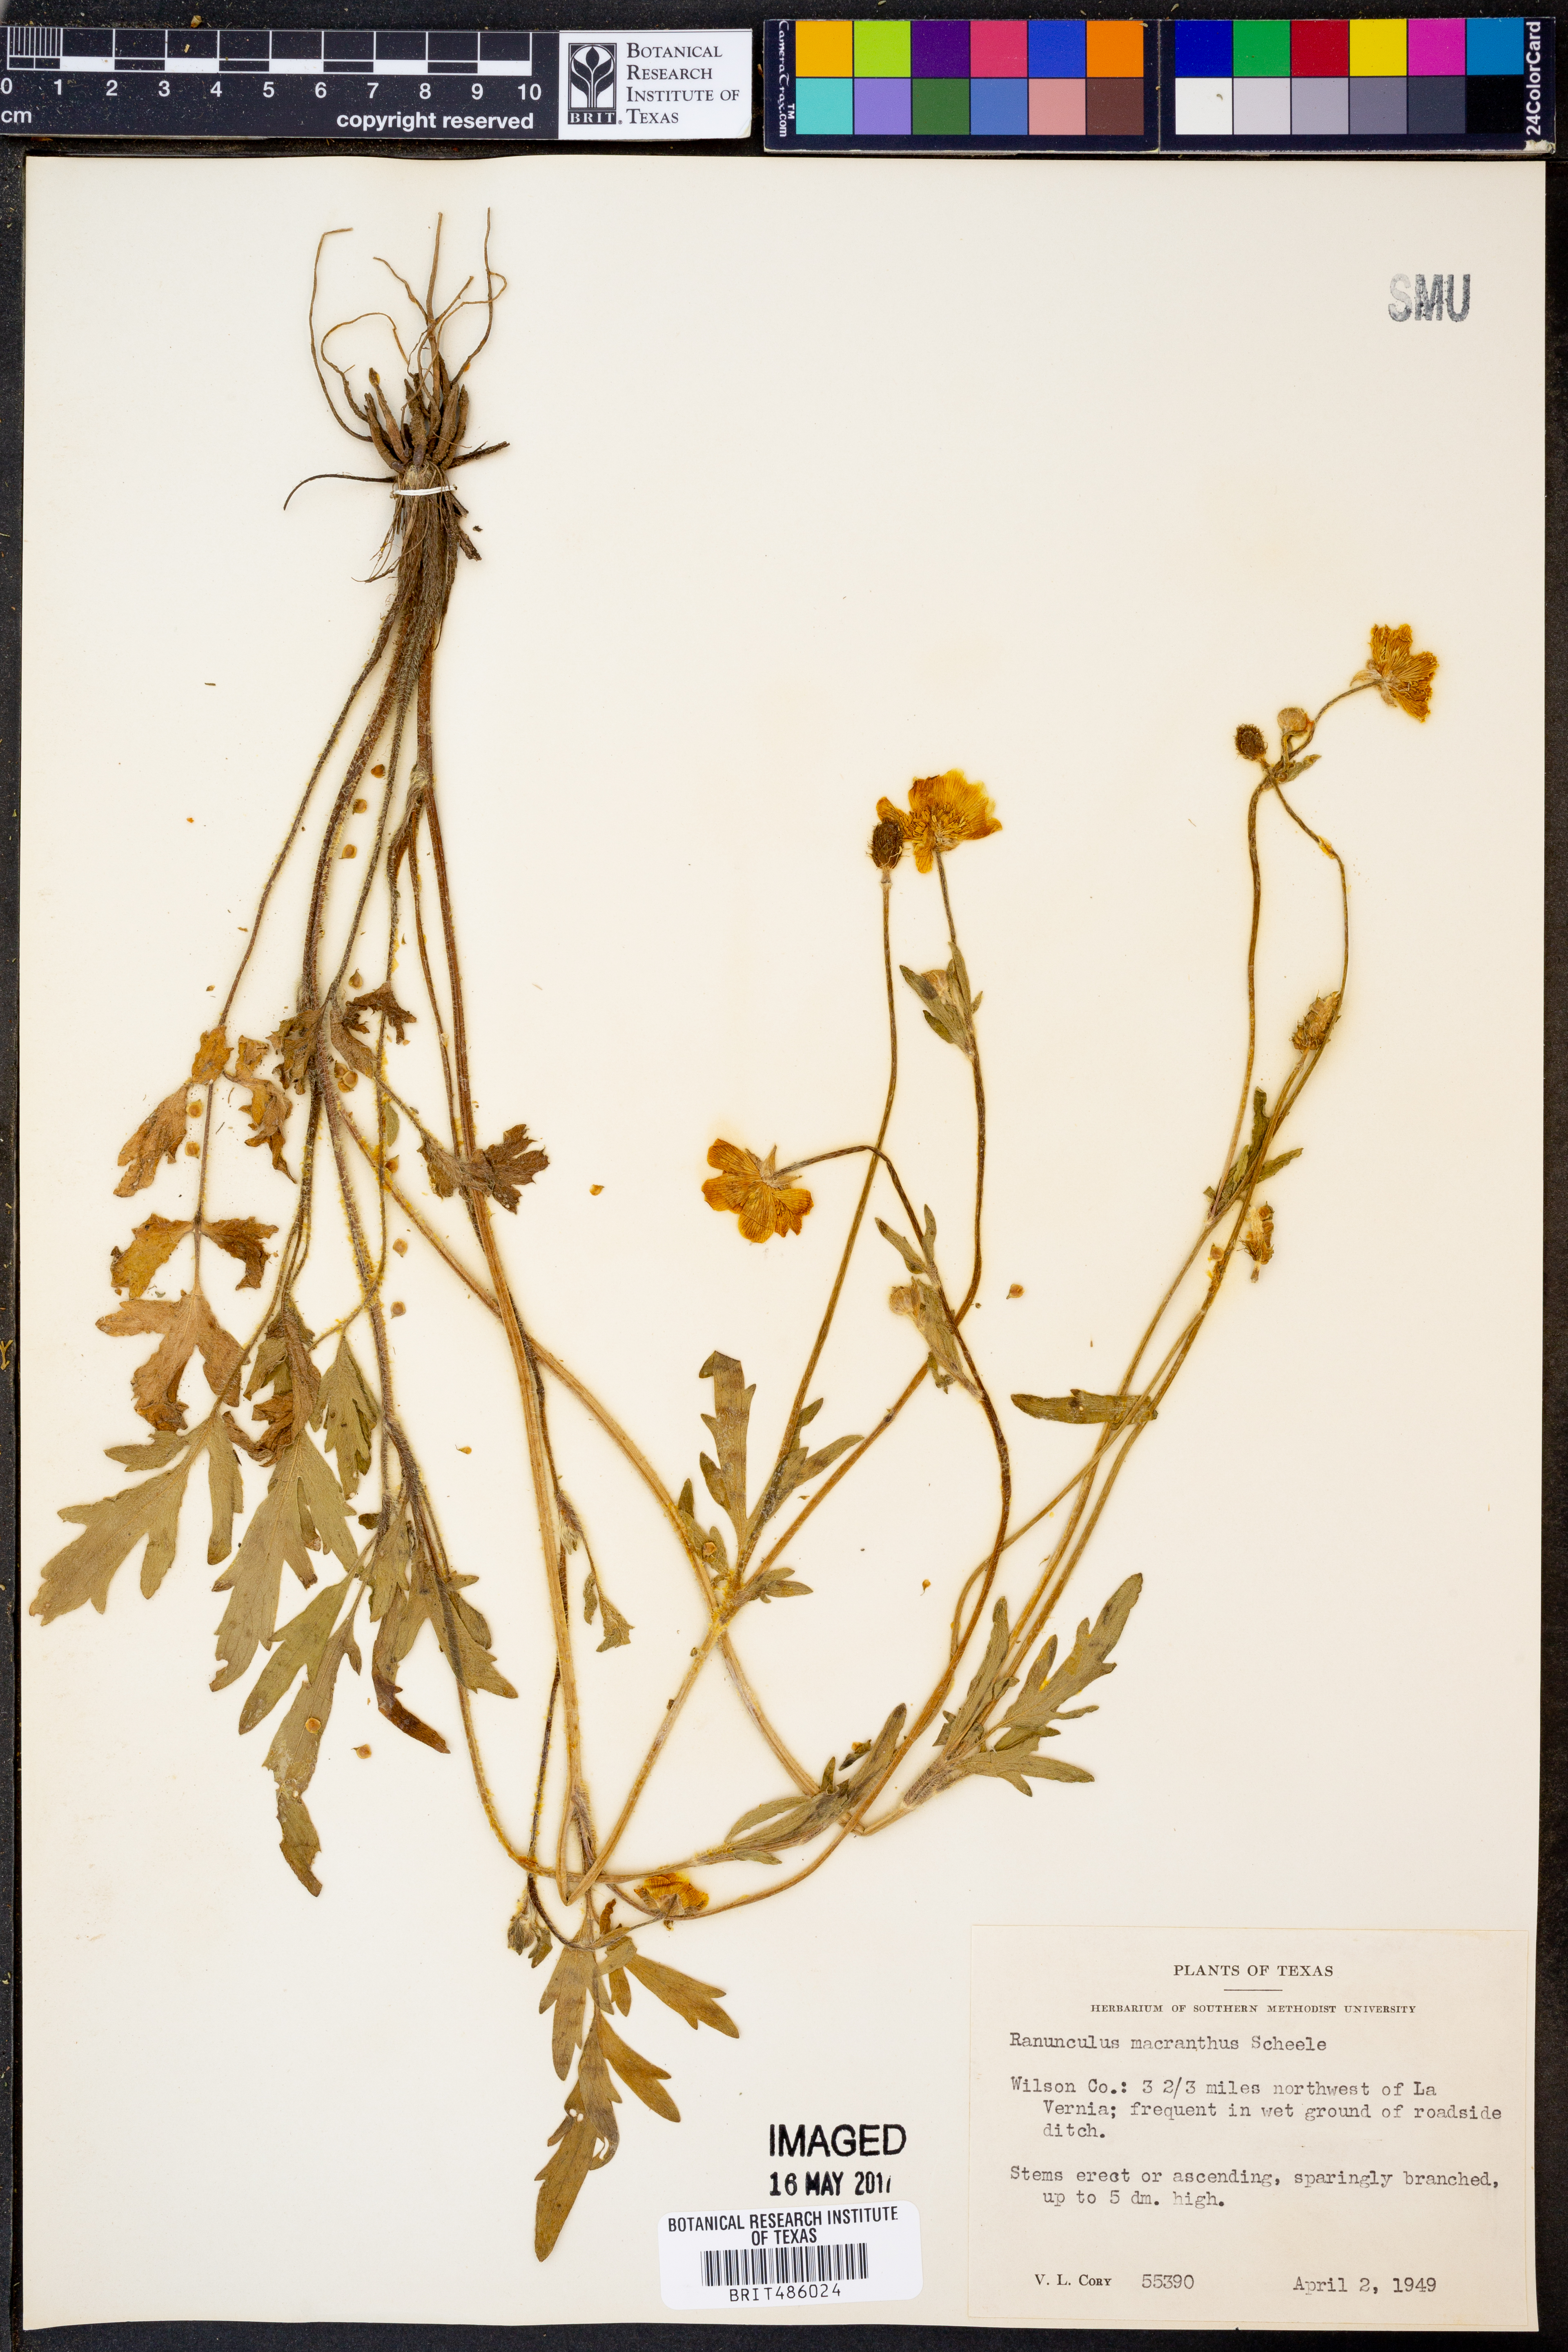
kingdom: Plantae
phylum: Tracheophyta
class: Magnoliopsida
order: Ranunculales
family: Ranunculaceae
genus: Ranunculus
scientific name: Ranunculus macranthus
